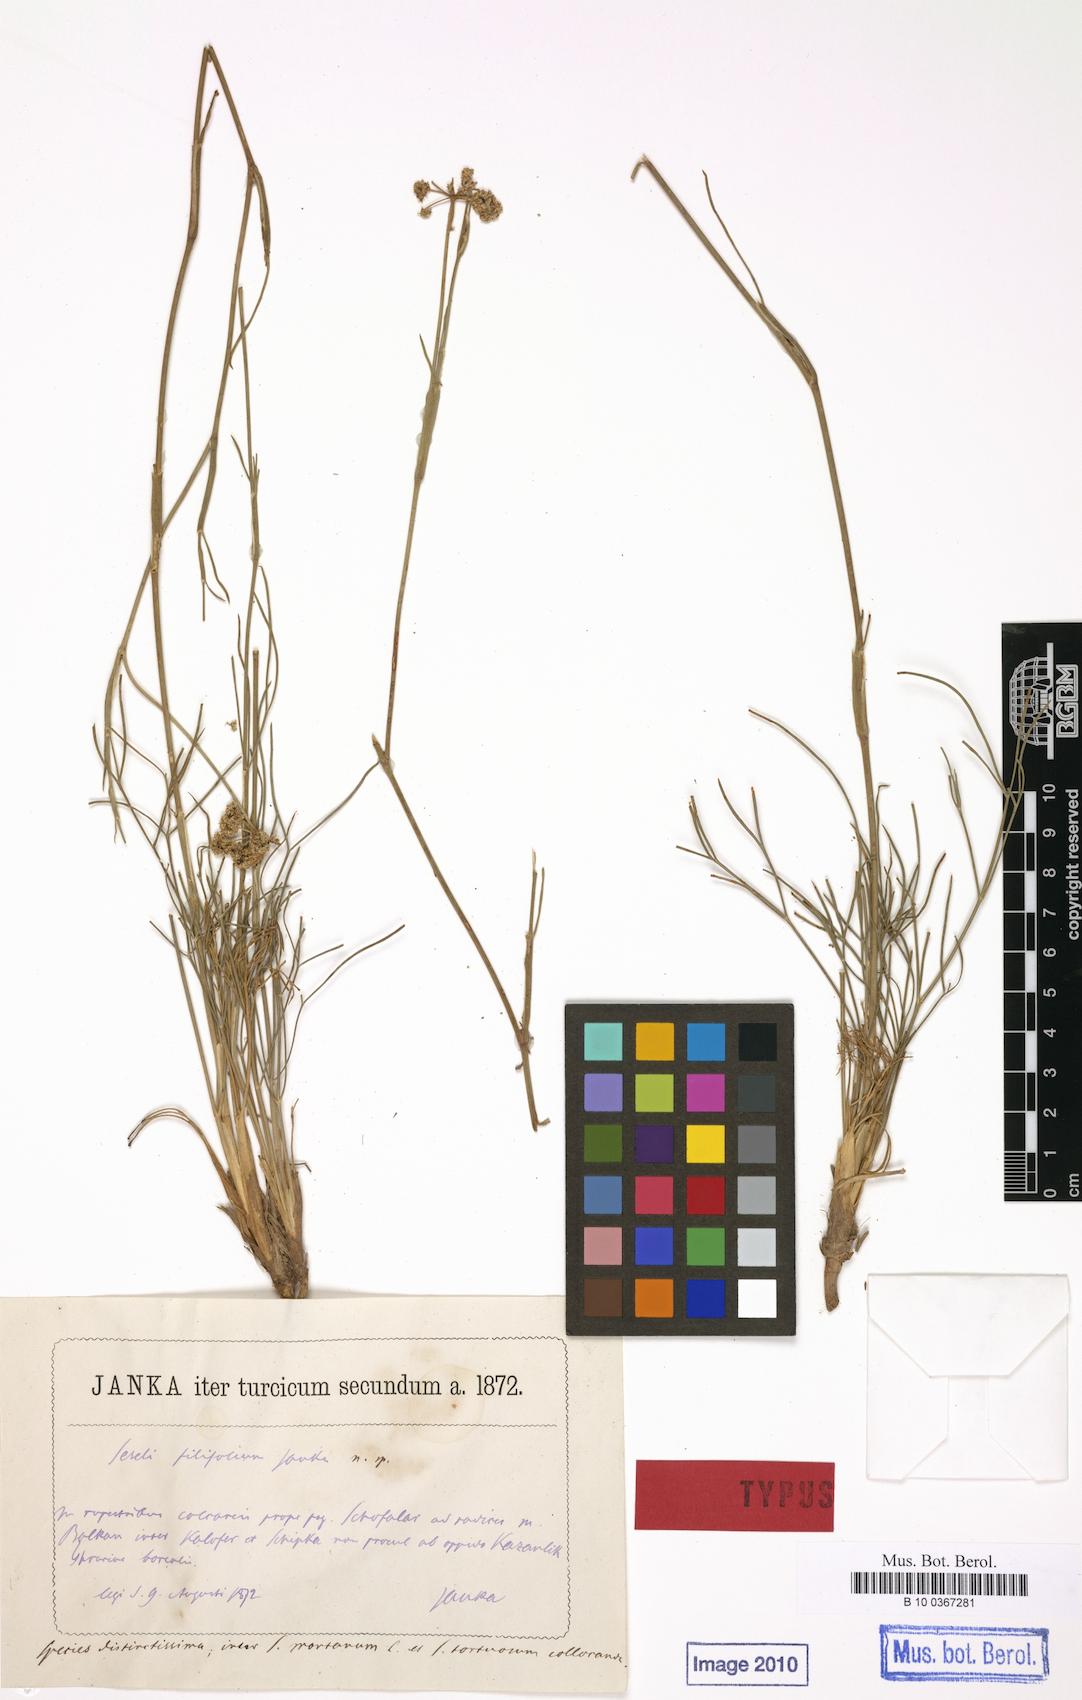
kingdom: Plantae
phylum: Tracheophyta
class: Magnoliopsida
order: Apiales
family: Apiaceae
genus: Seseli
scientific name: Seseli bulgaricum
